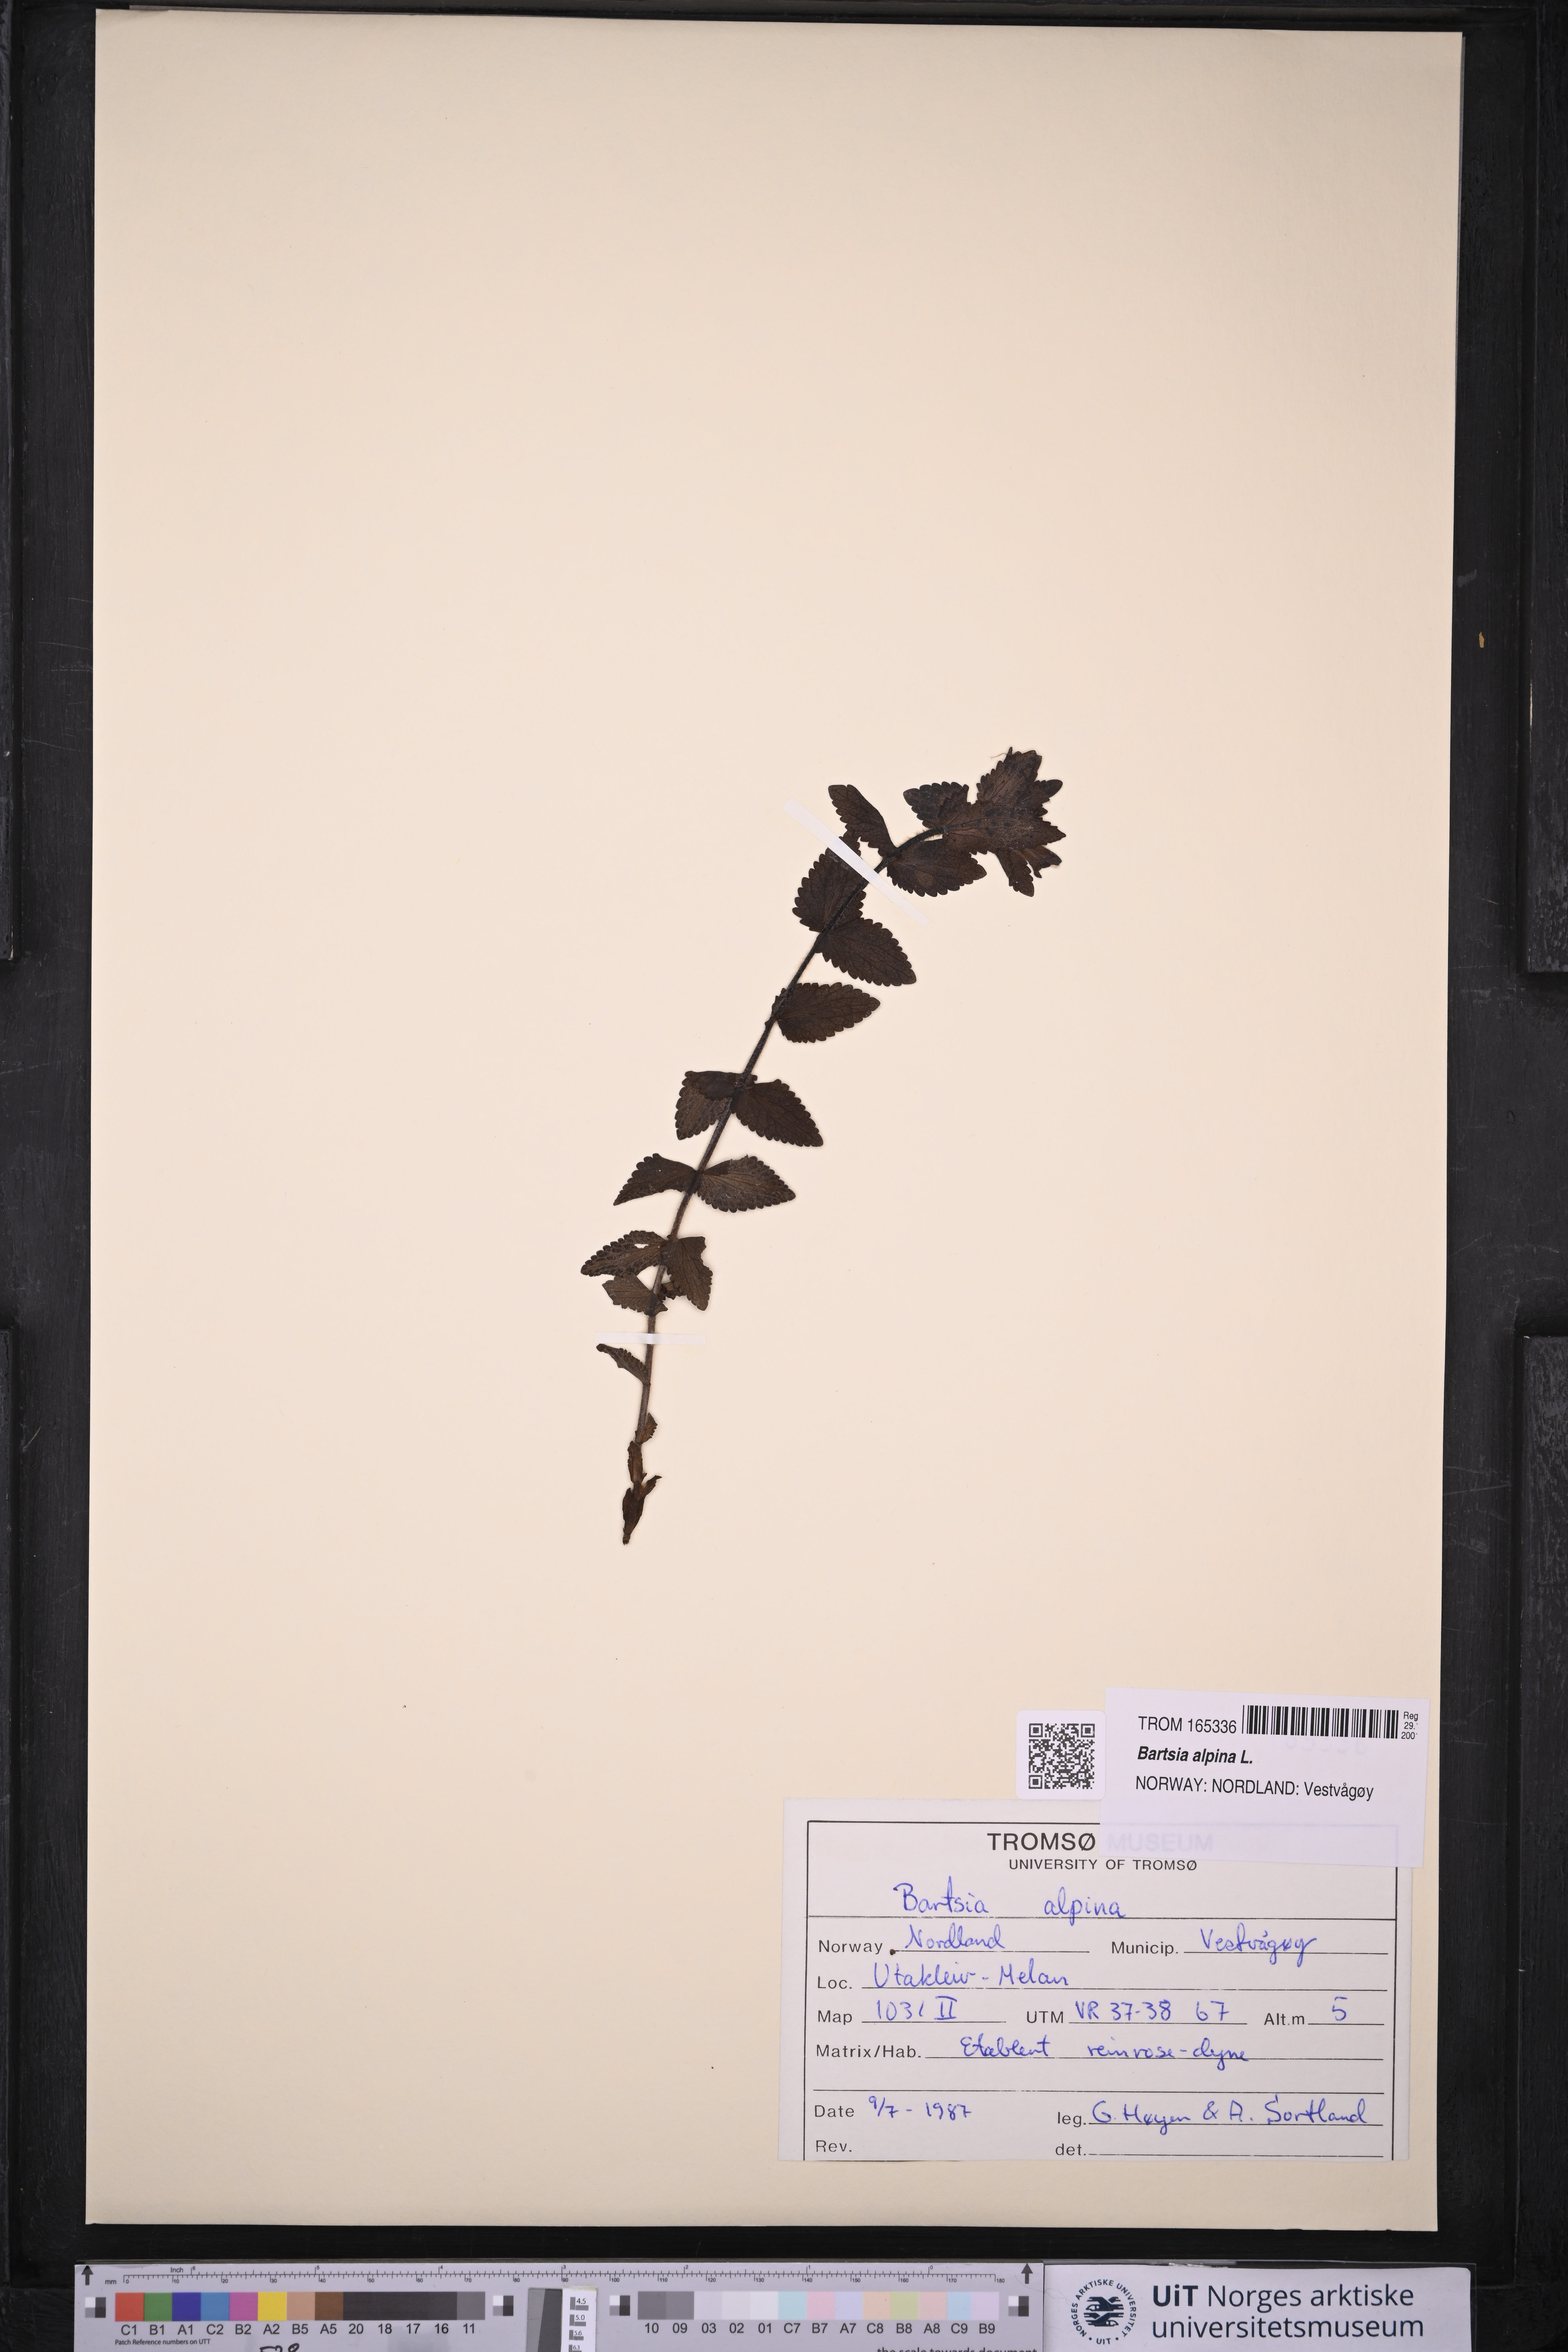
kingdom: Plantae
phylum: Tracheophyta
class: Magnoliopsida
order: Lamiales
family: Orobanchaceae
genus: Bartsia
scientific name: Bartsia alpina
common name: Alpine bartsia
